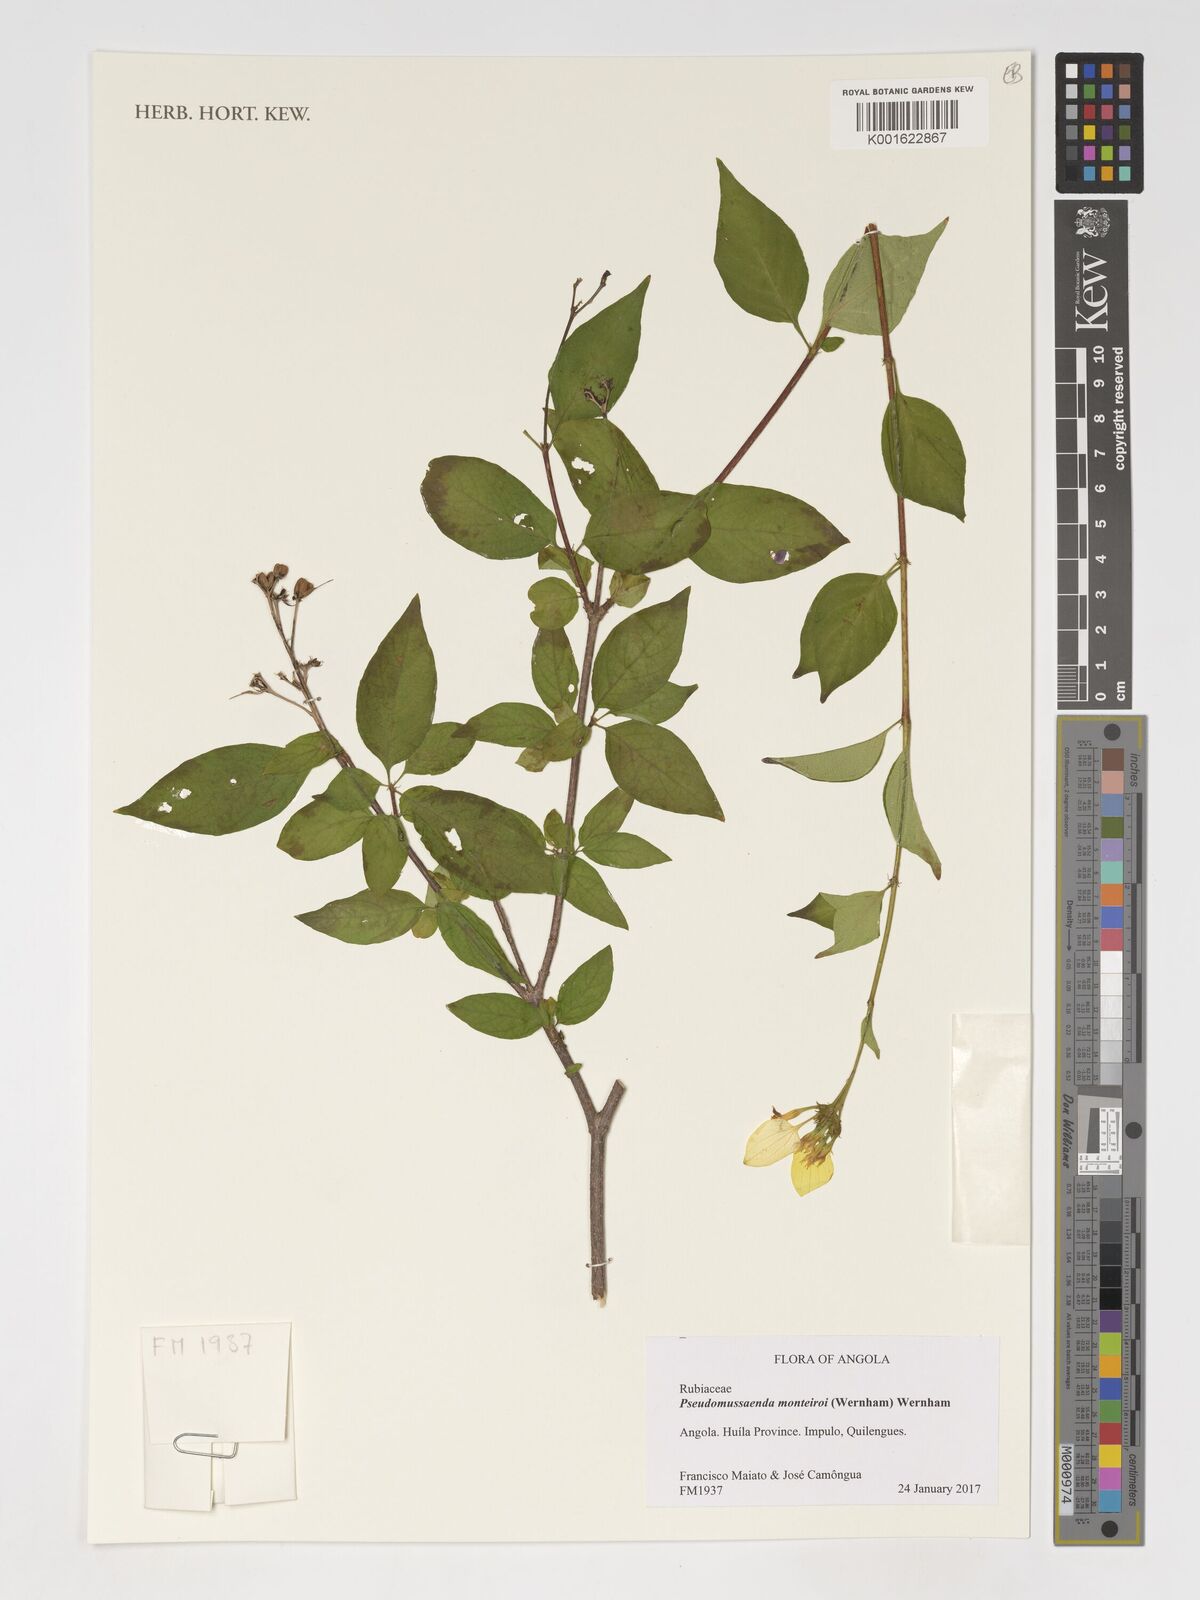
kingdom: Plantae
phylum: Tracheophyta
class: Magnoliopsida
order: Gentianales
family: Rubiaceae
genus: Pseudomussaenda
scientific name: Pseudomussaenda monteiroi
